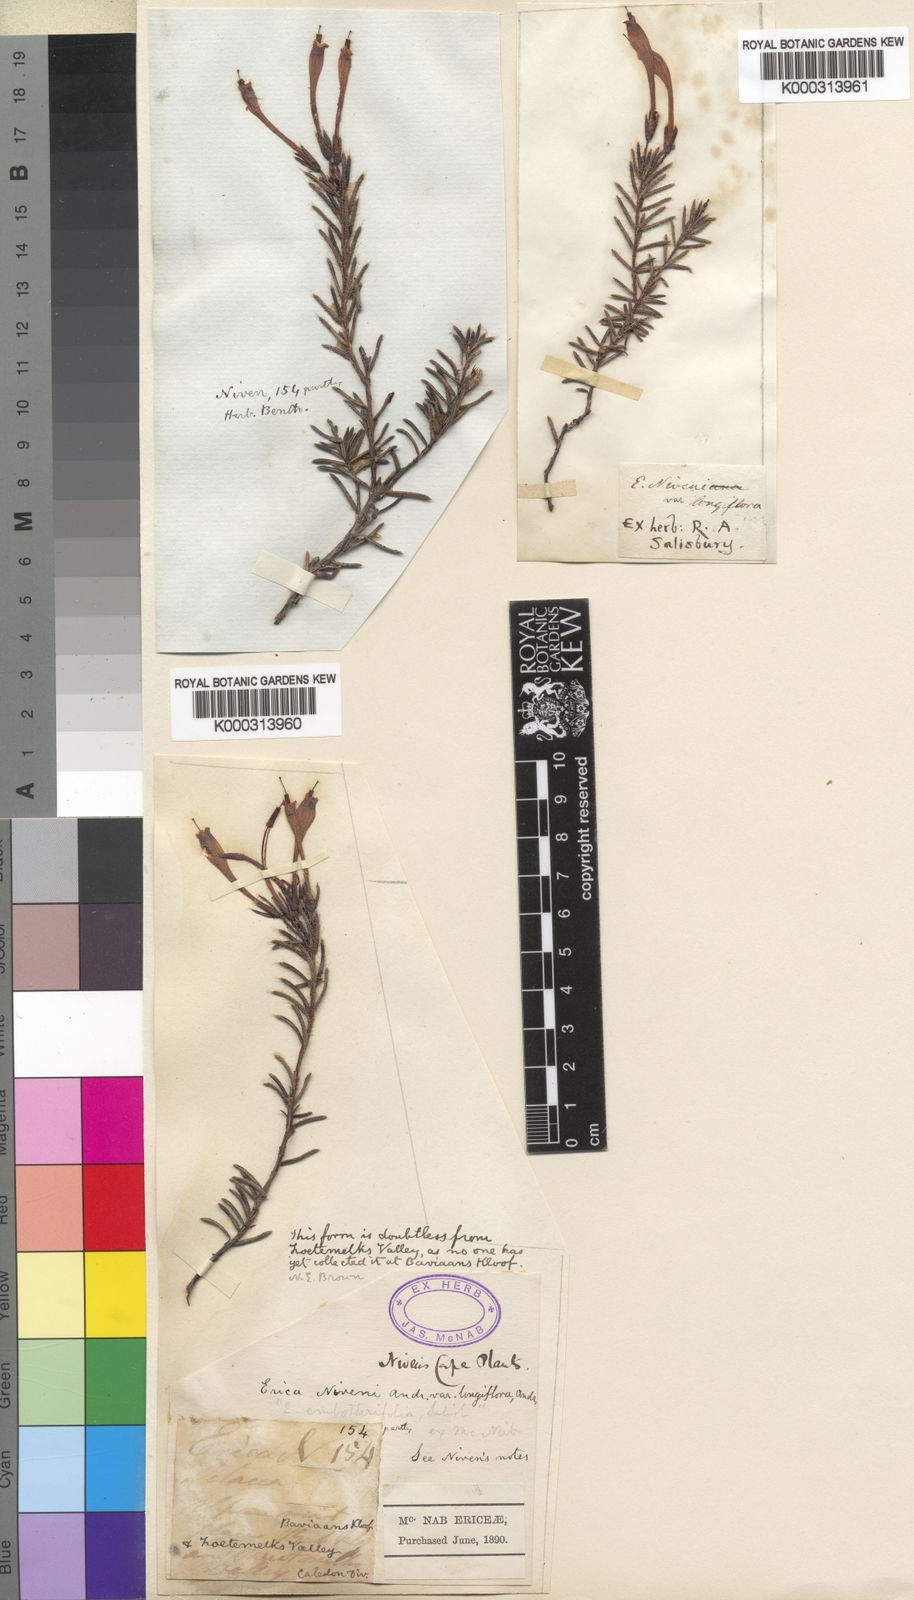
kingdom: Plantae
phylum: Tracheophyta
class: Magnoliopsida
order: Ericales
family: Ericaceae
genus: Erica
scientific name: Erica embothriifolia
